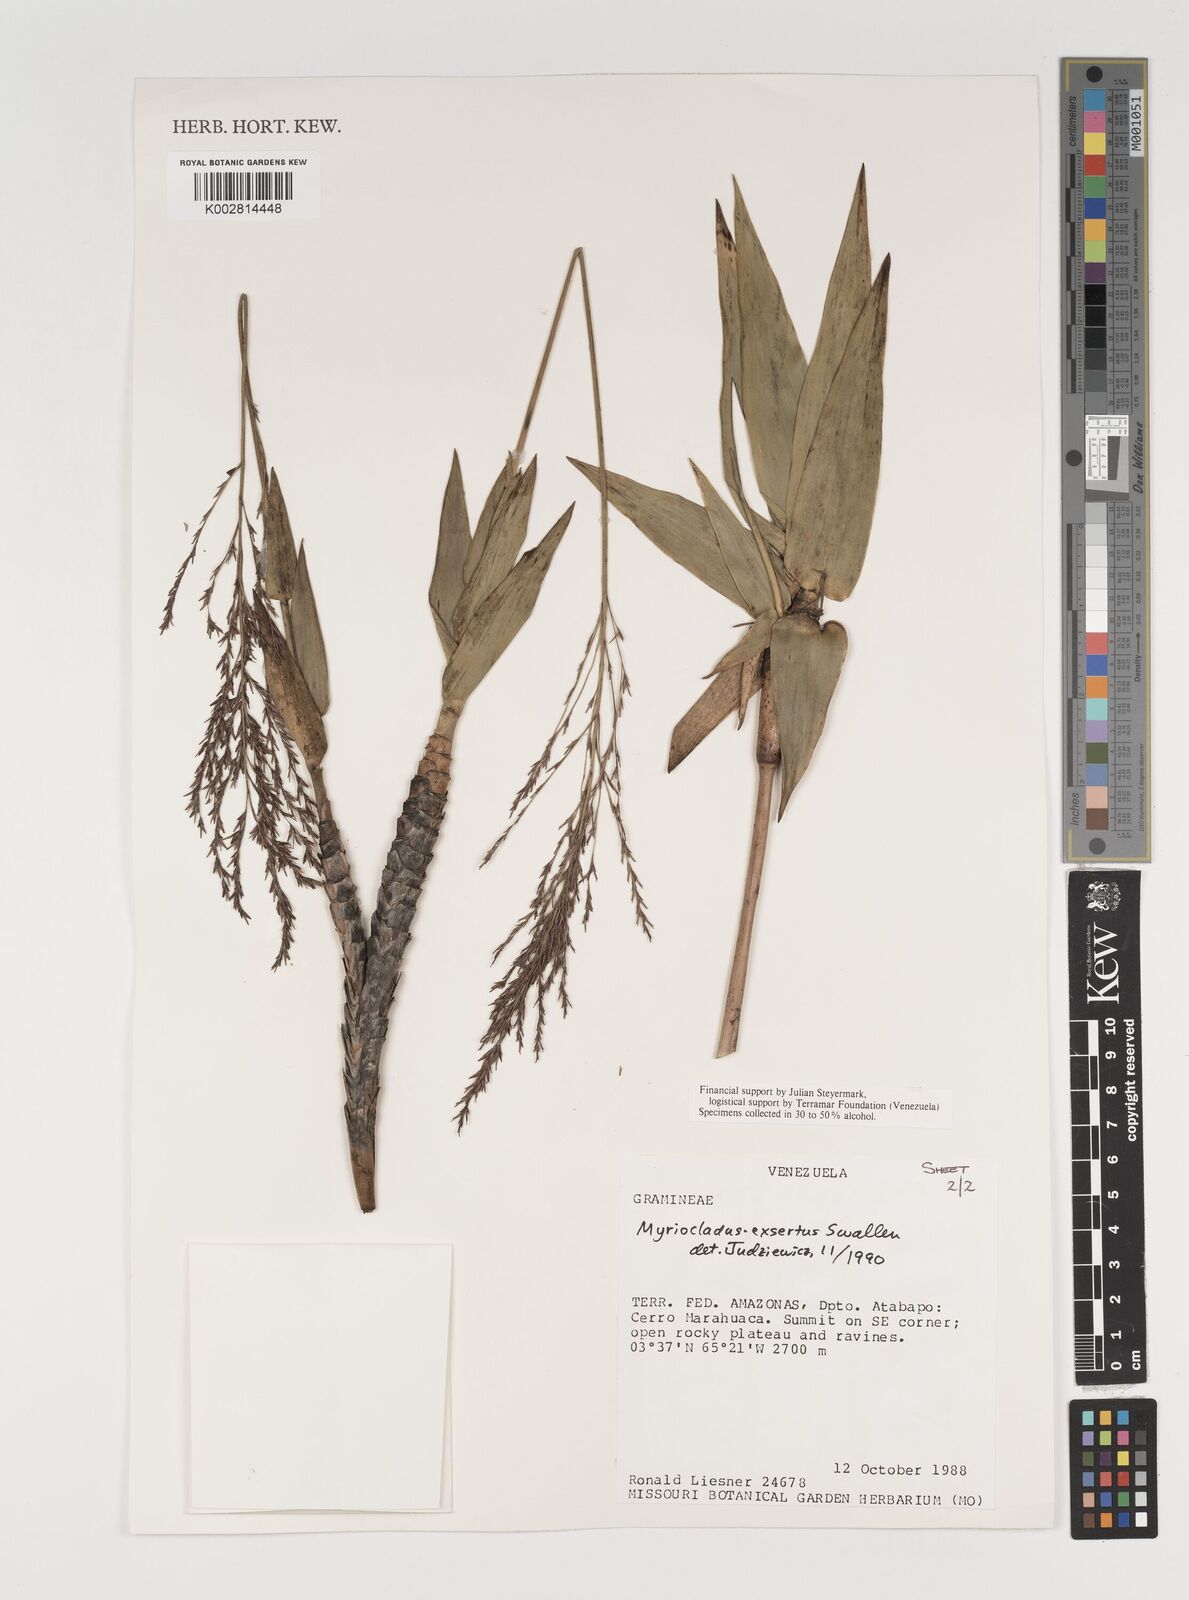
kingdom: Plantae
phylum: Tracheophyta
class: Liliopsida
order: Poales
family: Poaceae
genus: Myriocladus
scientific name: Myriocladus exsertus
